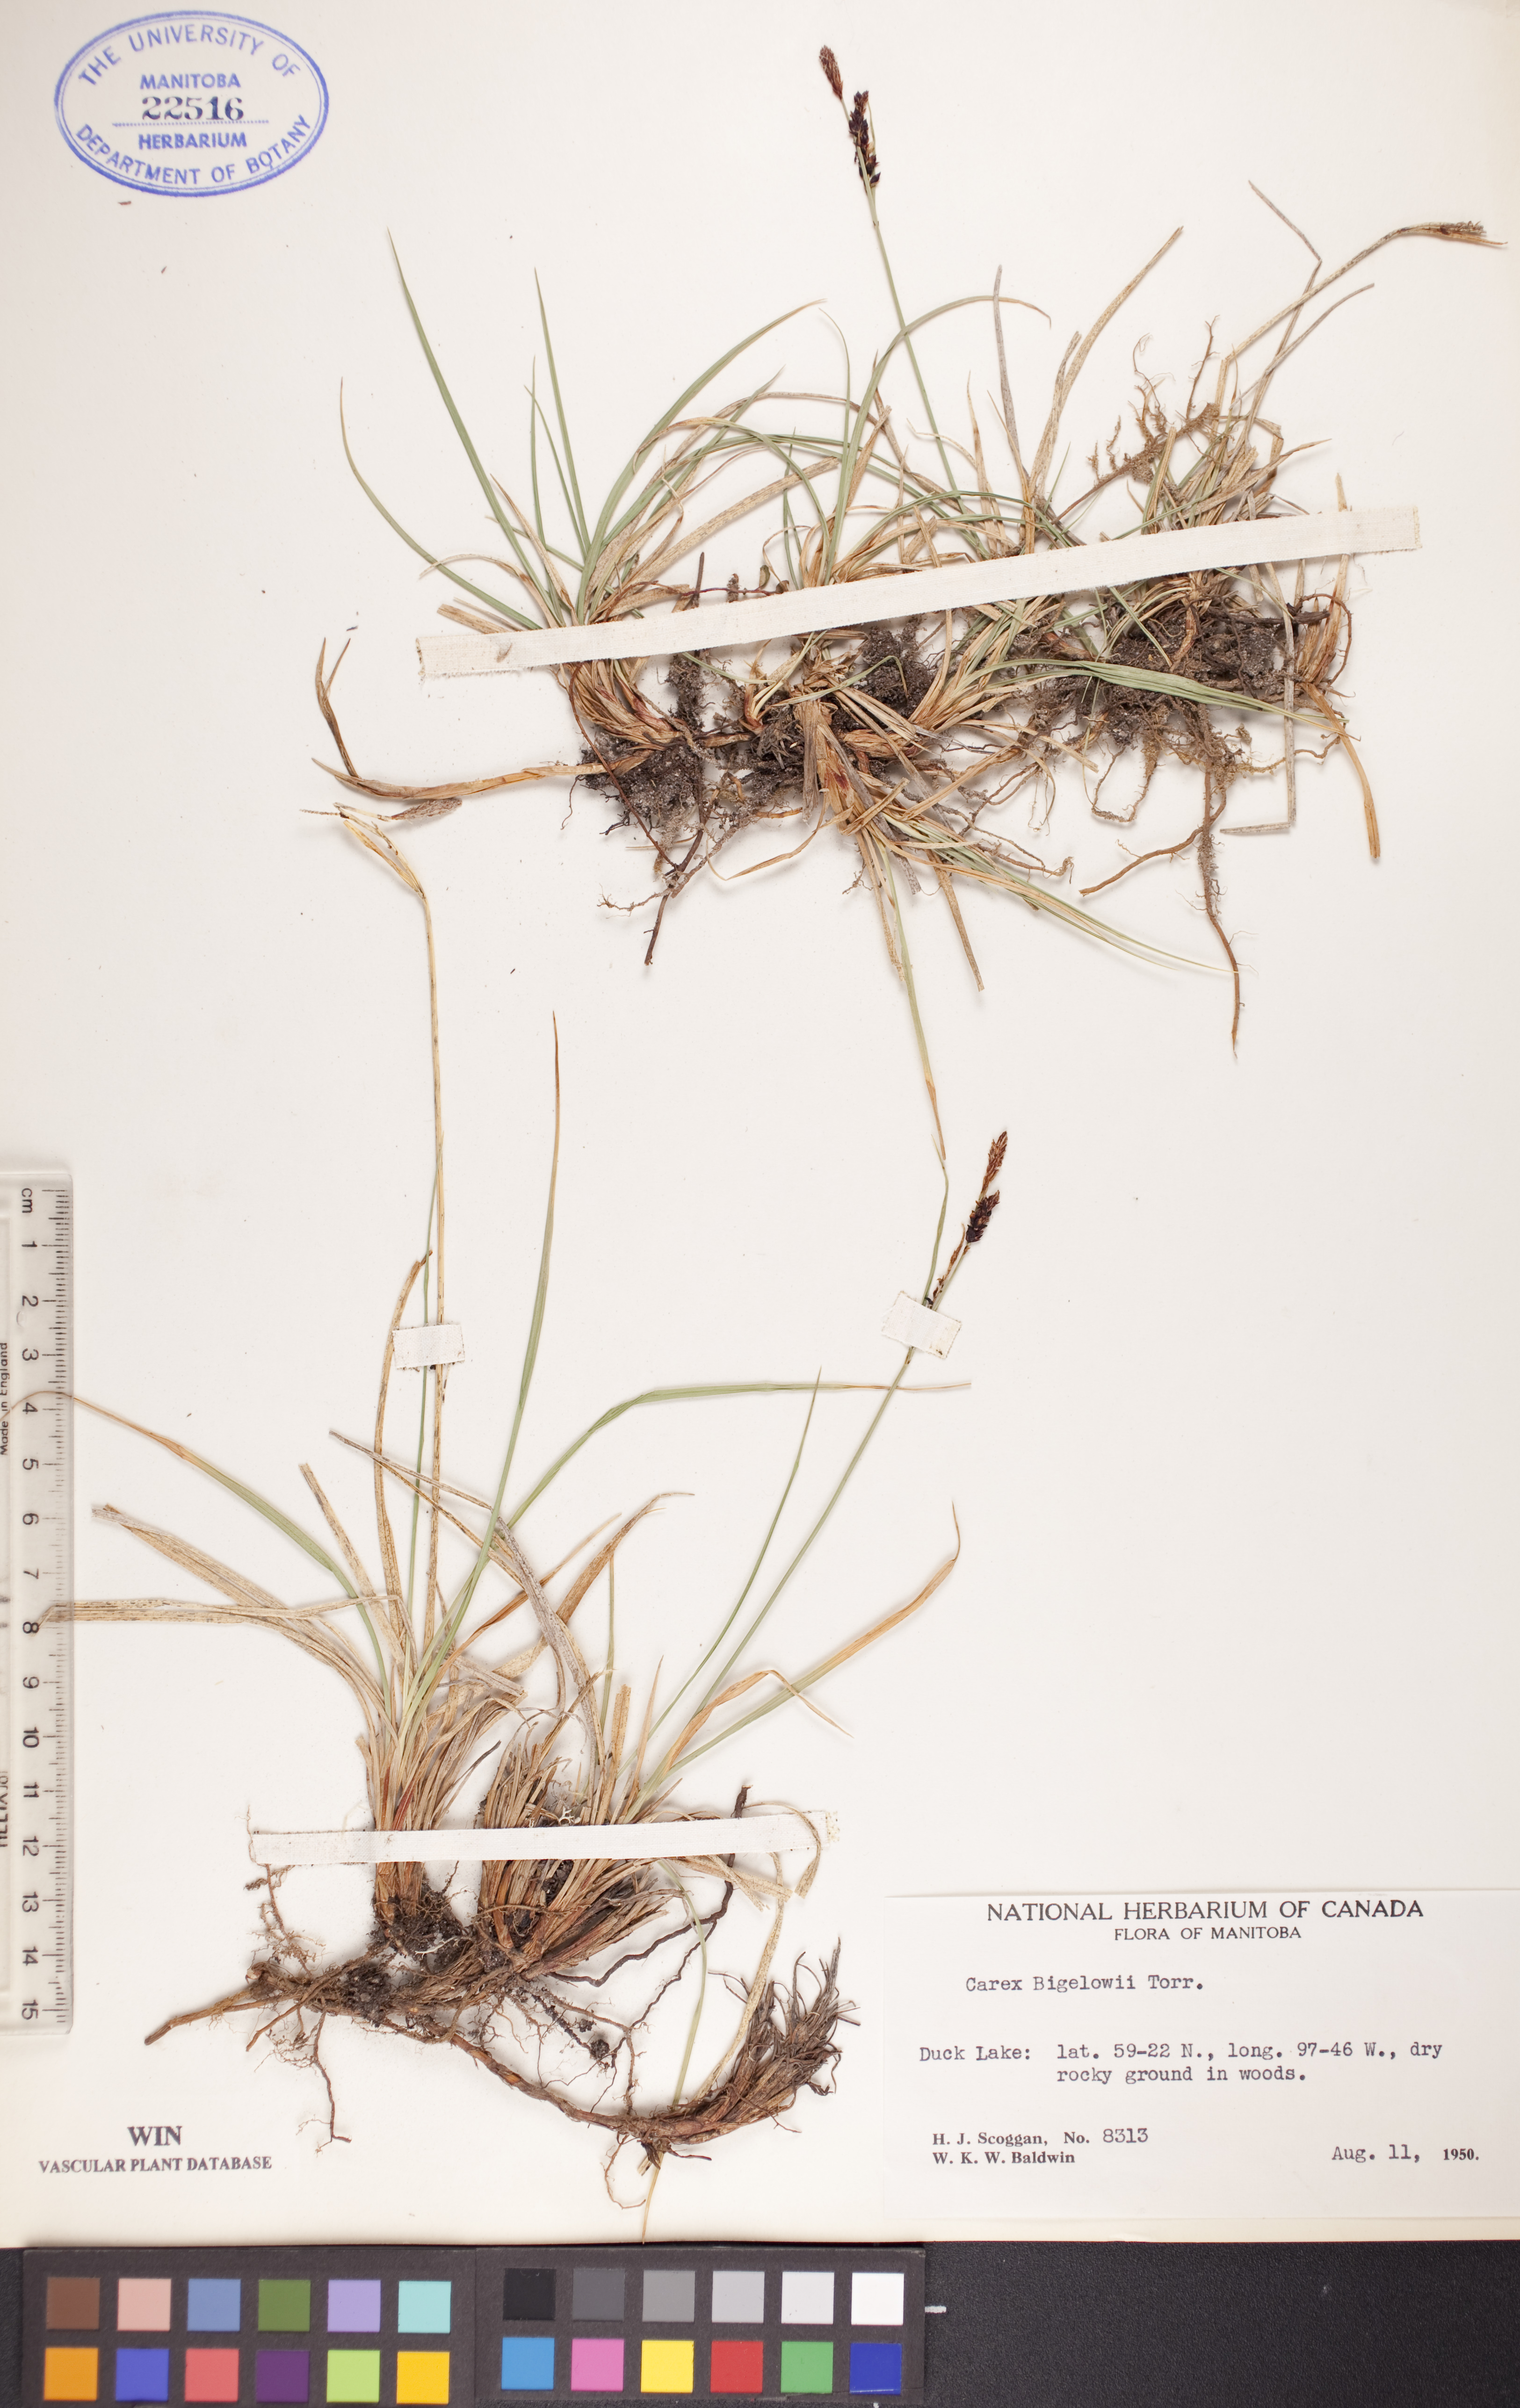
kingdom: Plantae
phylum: Tracheophyta
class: Liliopsida
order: Poales
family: Cyperaceae
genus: Carex
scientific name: Carex bigelowii
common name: Stiff sedge
